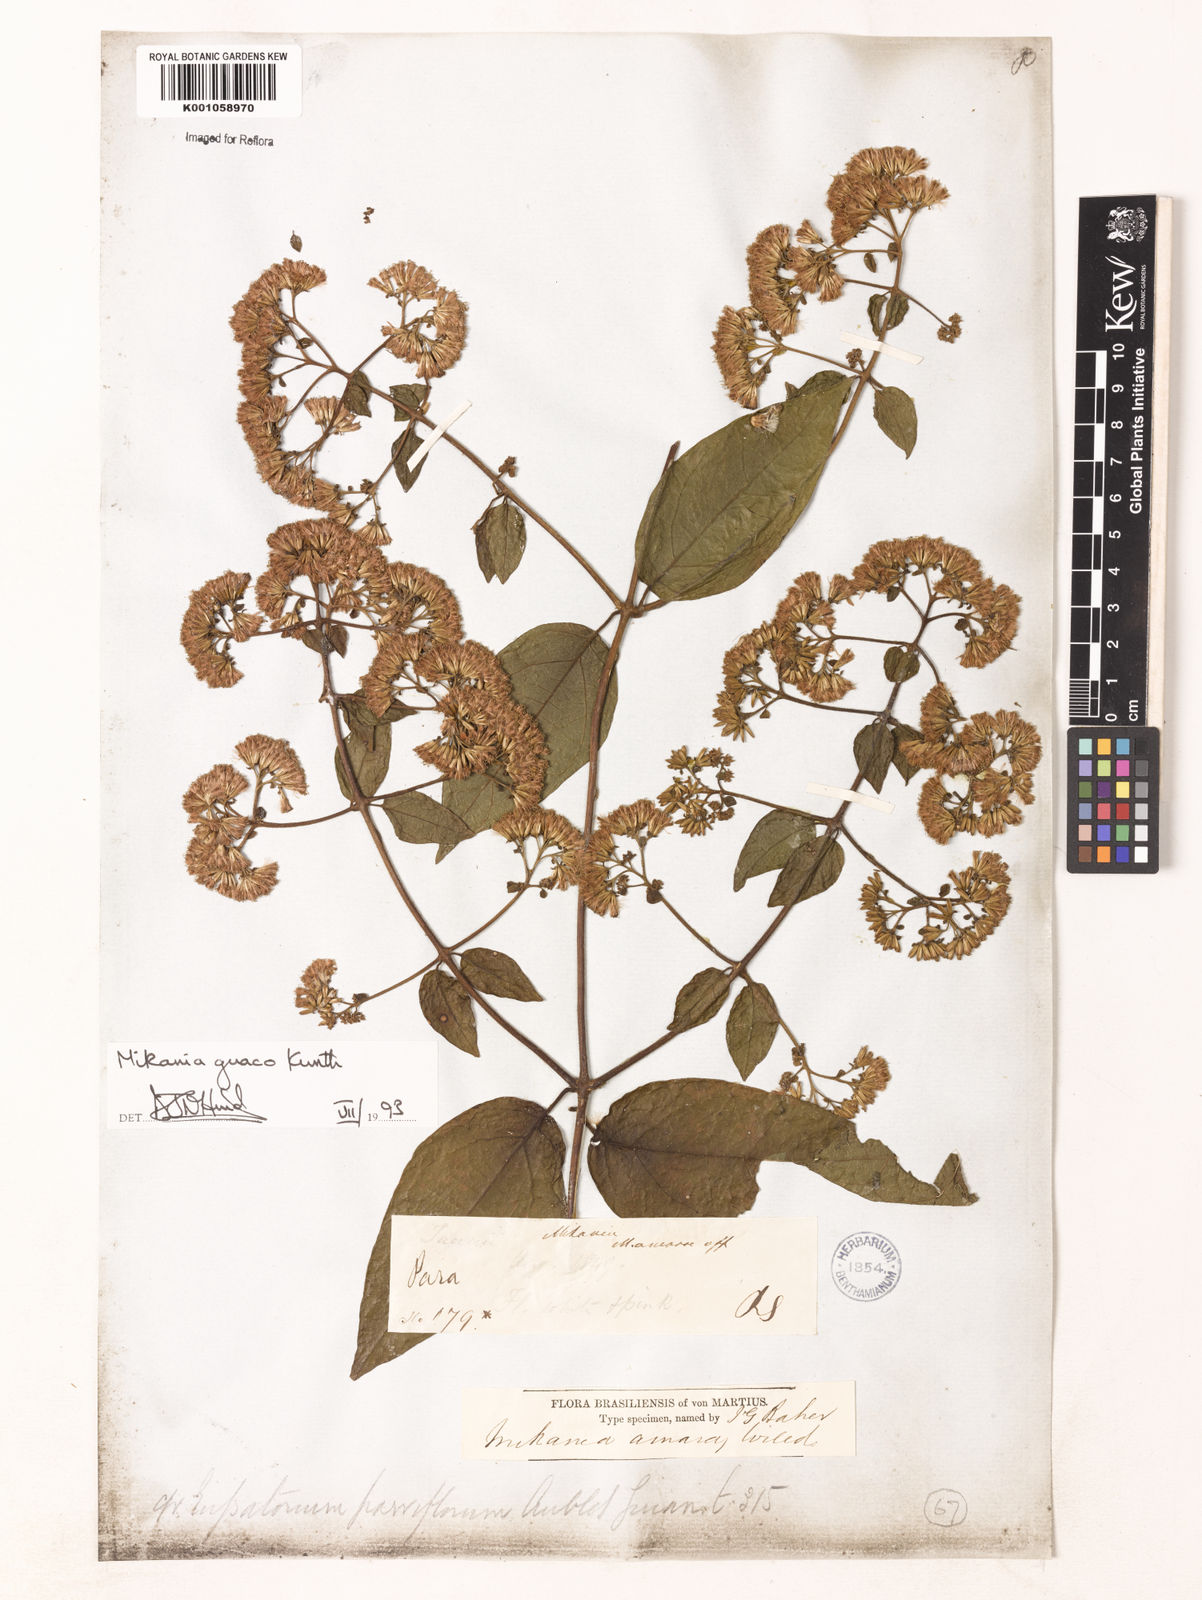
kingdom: Plantae
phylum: Tracheophyta
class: Magnoliopsida
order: Asterales
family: Asteraceae
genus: Mikania
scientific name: Mikania guaco
